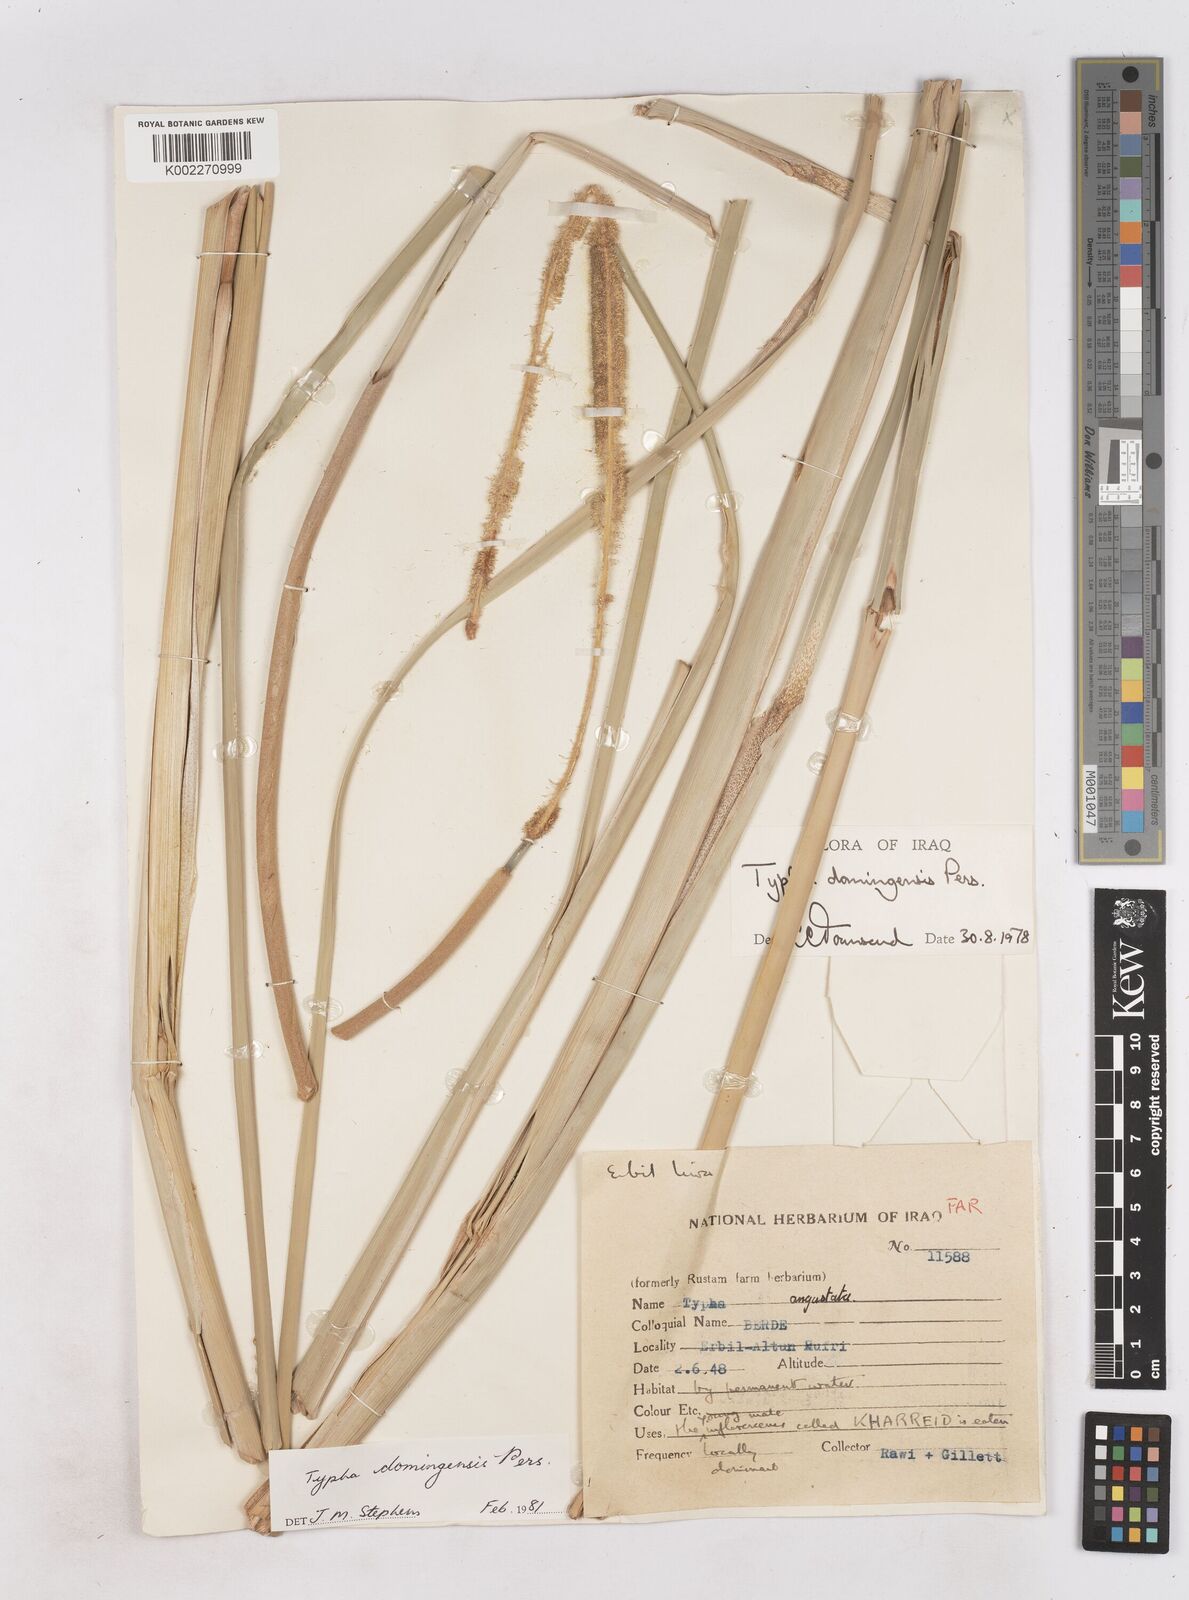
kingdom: Plantae
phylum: Tracheophyta
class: Liliopsida
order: Poales
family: Typhaceae
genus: Typha
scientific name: Typha domingensis
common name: Southern cattail
